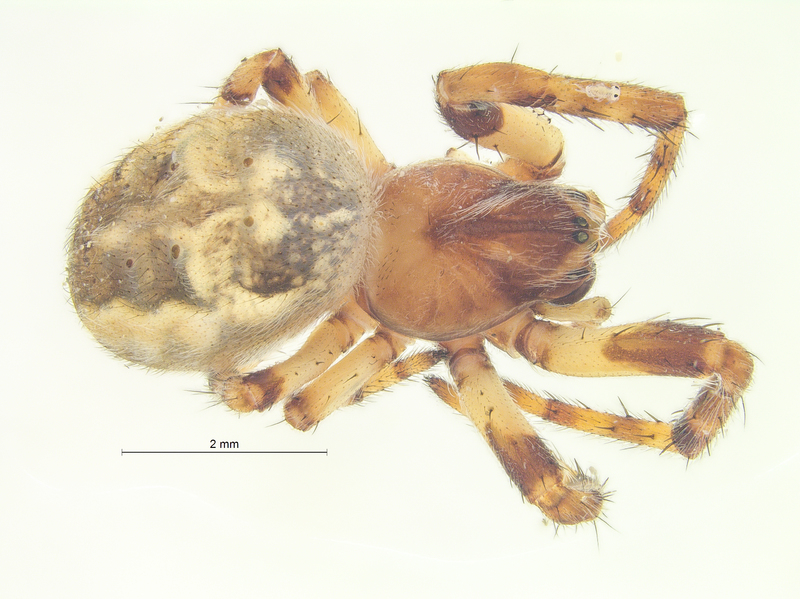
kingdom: Animalia
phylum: Arthropoda
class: Arachnida
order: Araneae
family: Araneidae
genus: Larinioides
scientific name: Larinioides cornutus
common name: Furrow orbweaver
